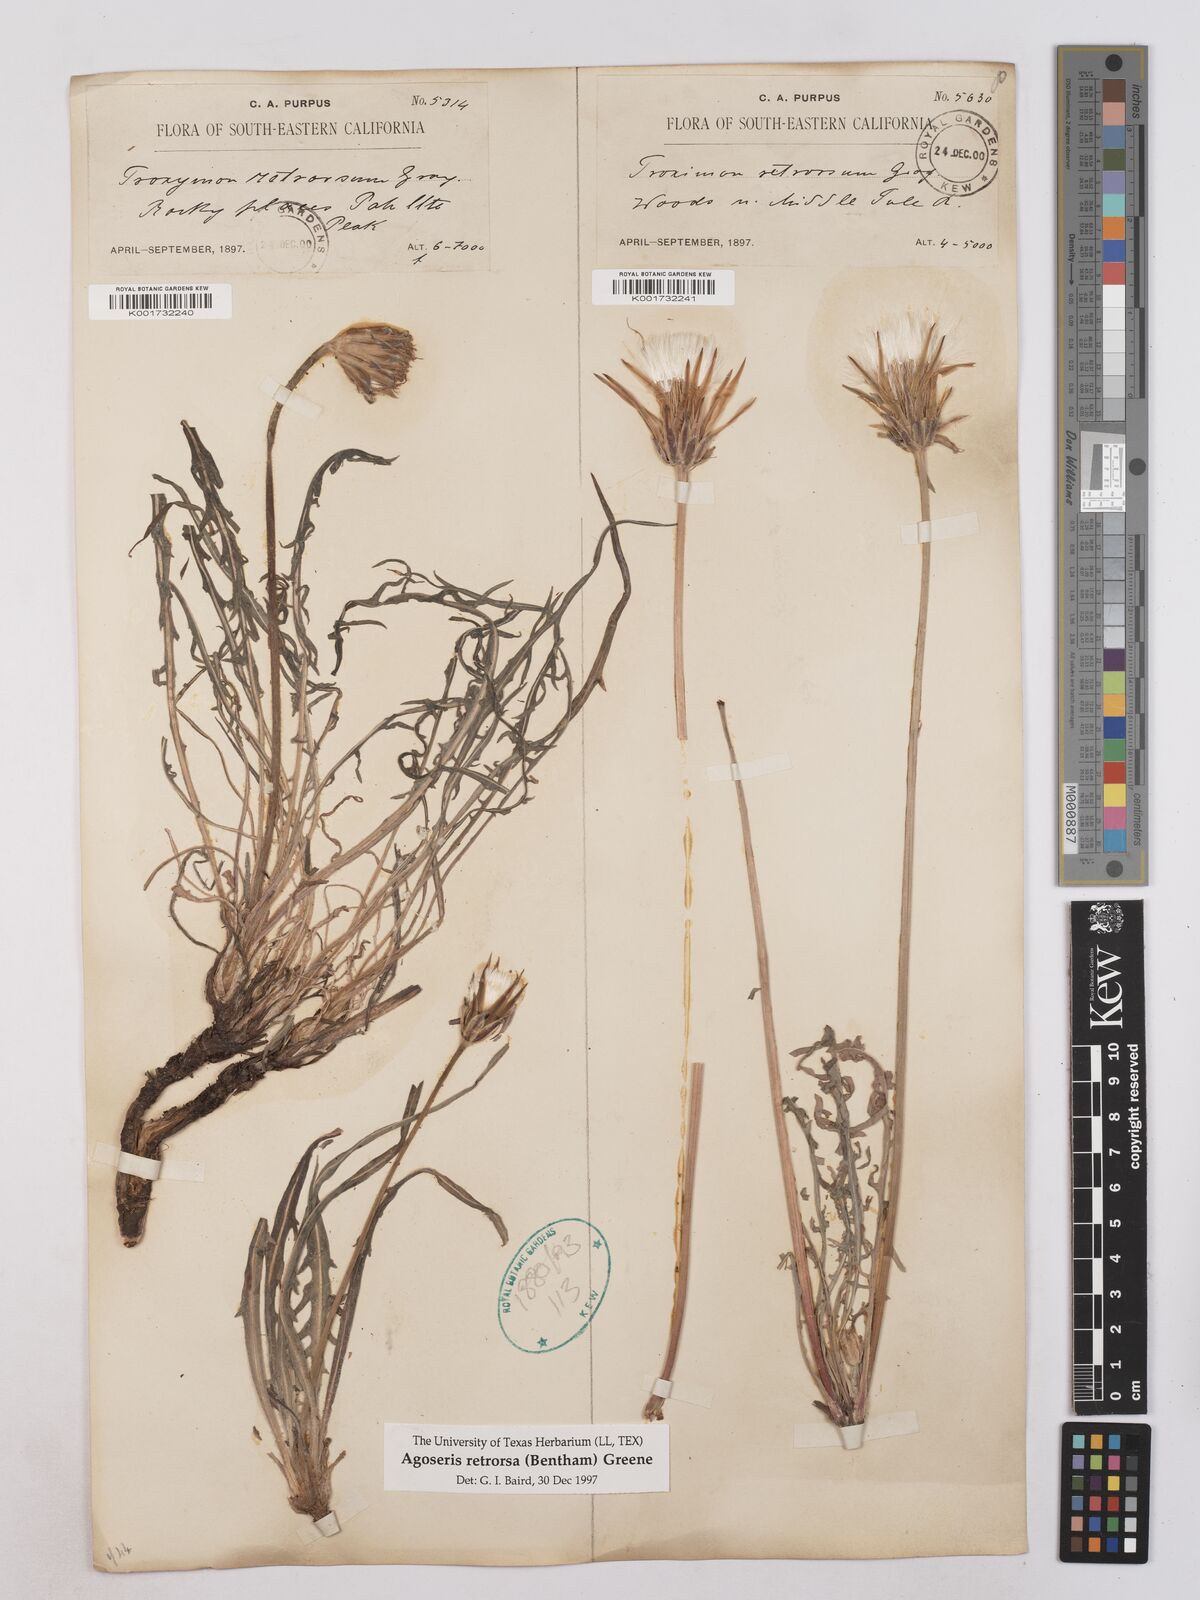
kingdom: Plantae
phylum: Tracheophyta
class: Magnoliopsida
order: Asterales
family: Asteraceae
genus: Agoseris
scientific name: Agoseris retrorsa
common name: Spearleaf agoseris
